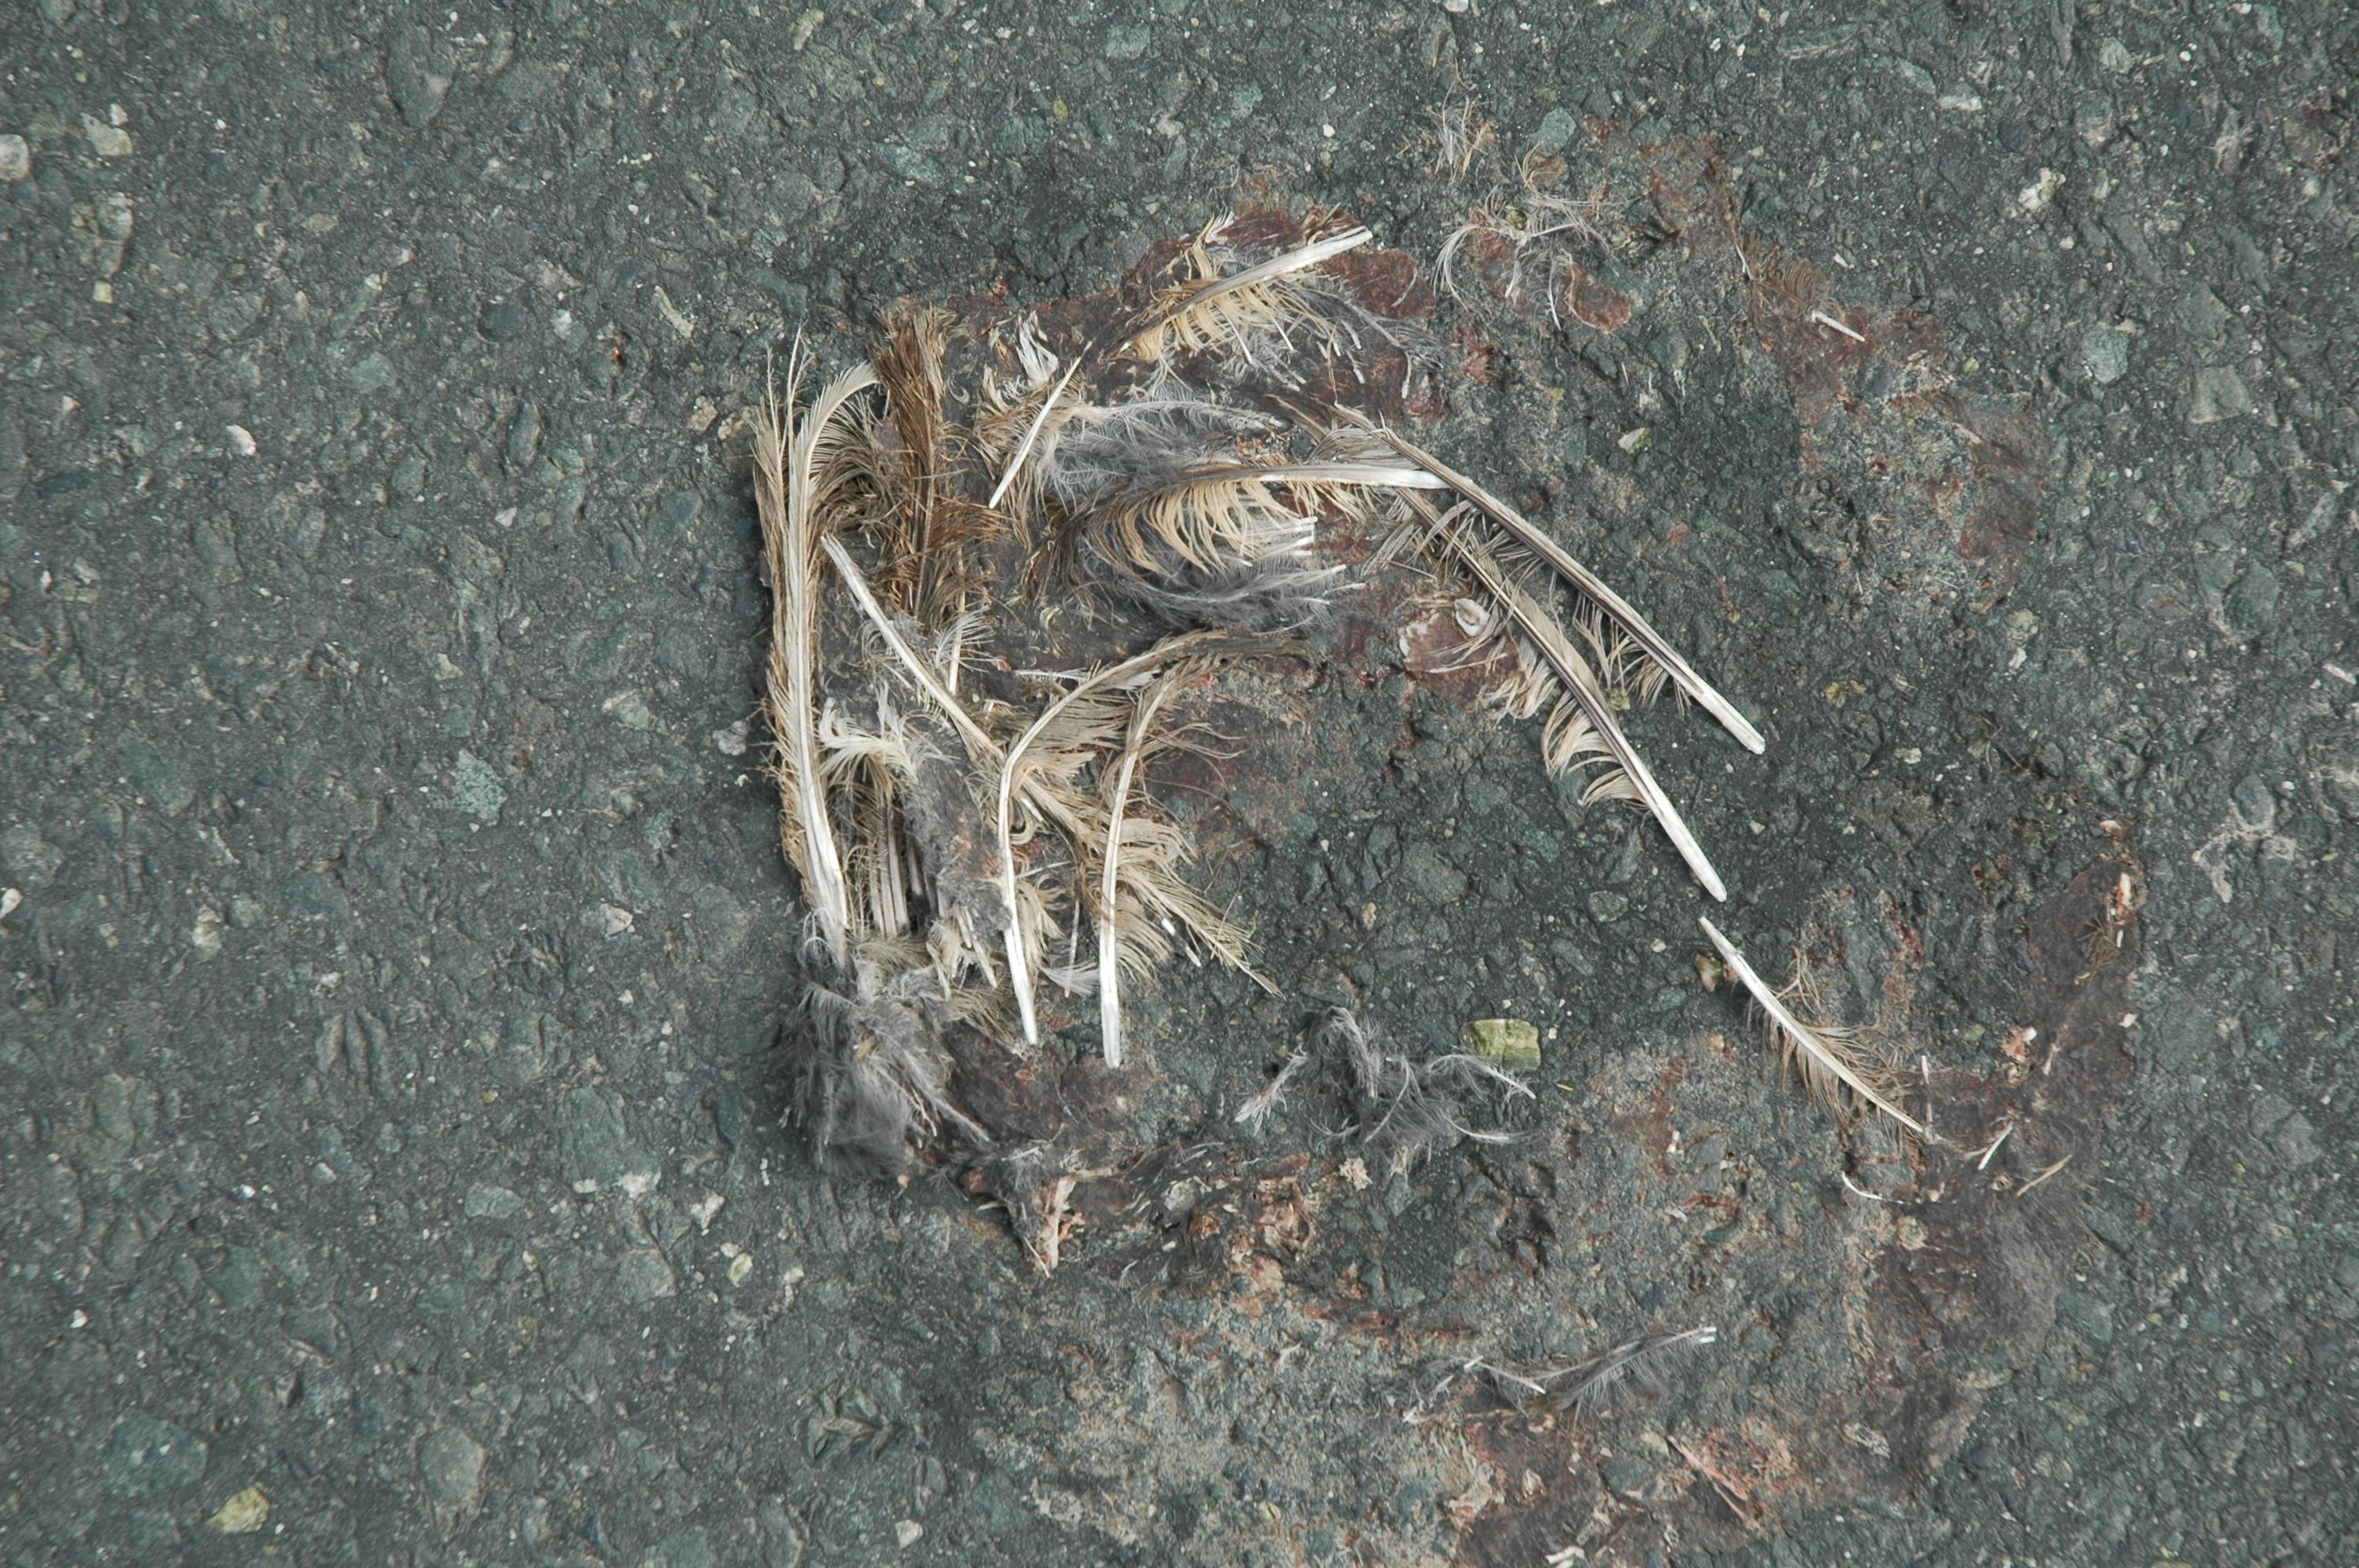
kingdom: Animalia
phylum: Chordata
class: Aves
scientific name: Aves
